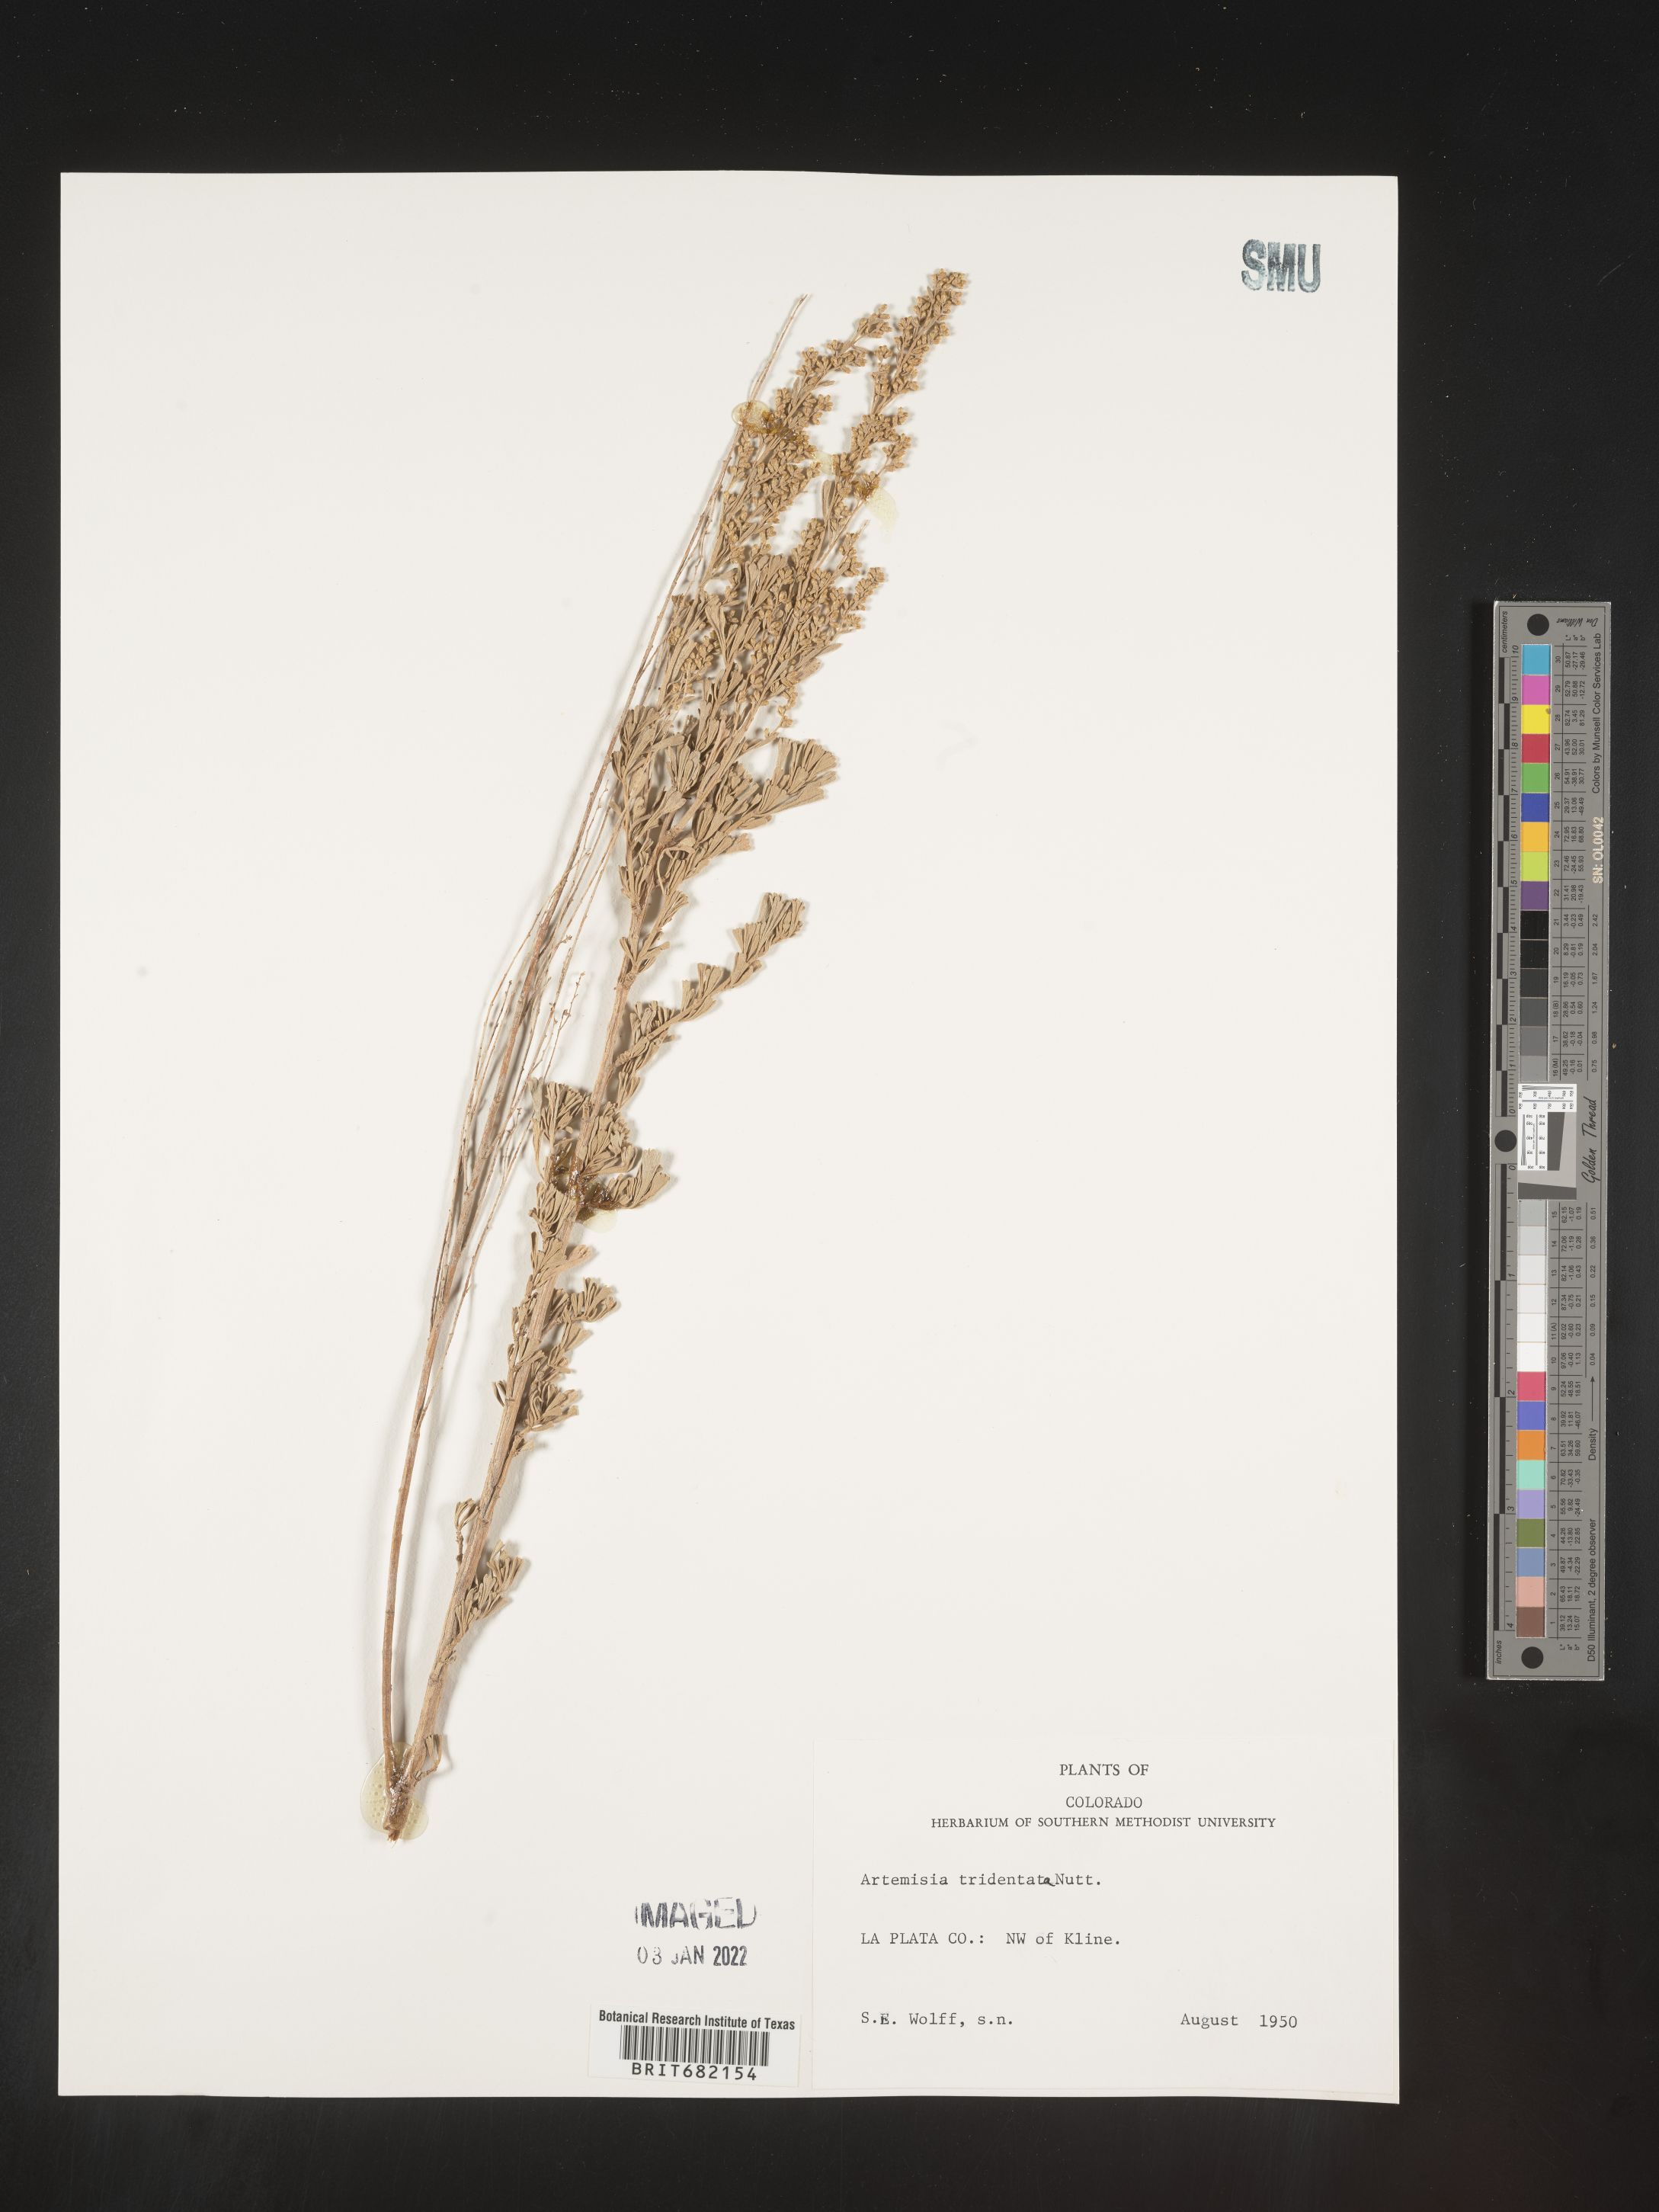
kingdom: Plantae
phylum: Tracheophyta
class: Magnoliopsida
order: Asterales
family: Asteraceae
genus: Artemisia
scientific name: Artemisia tridentata
